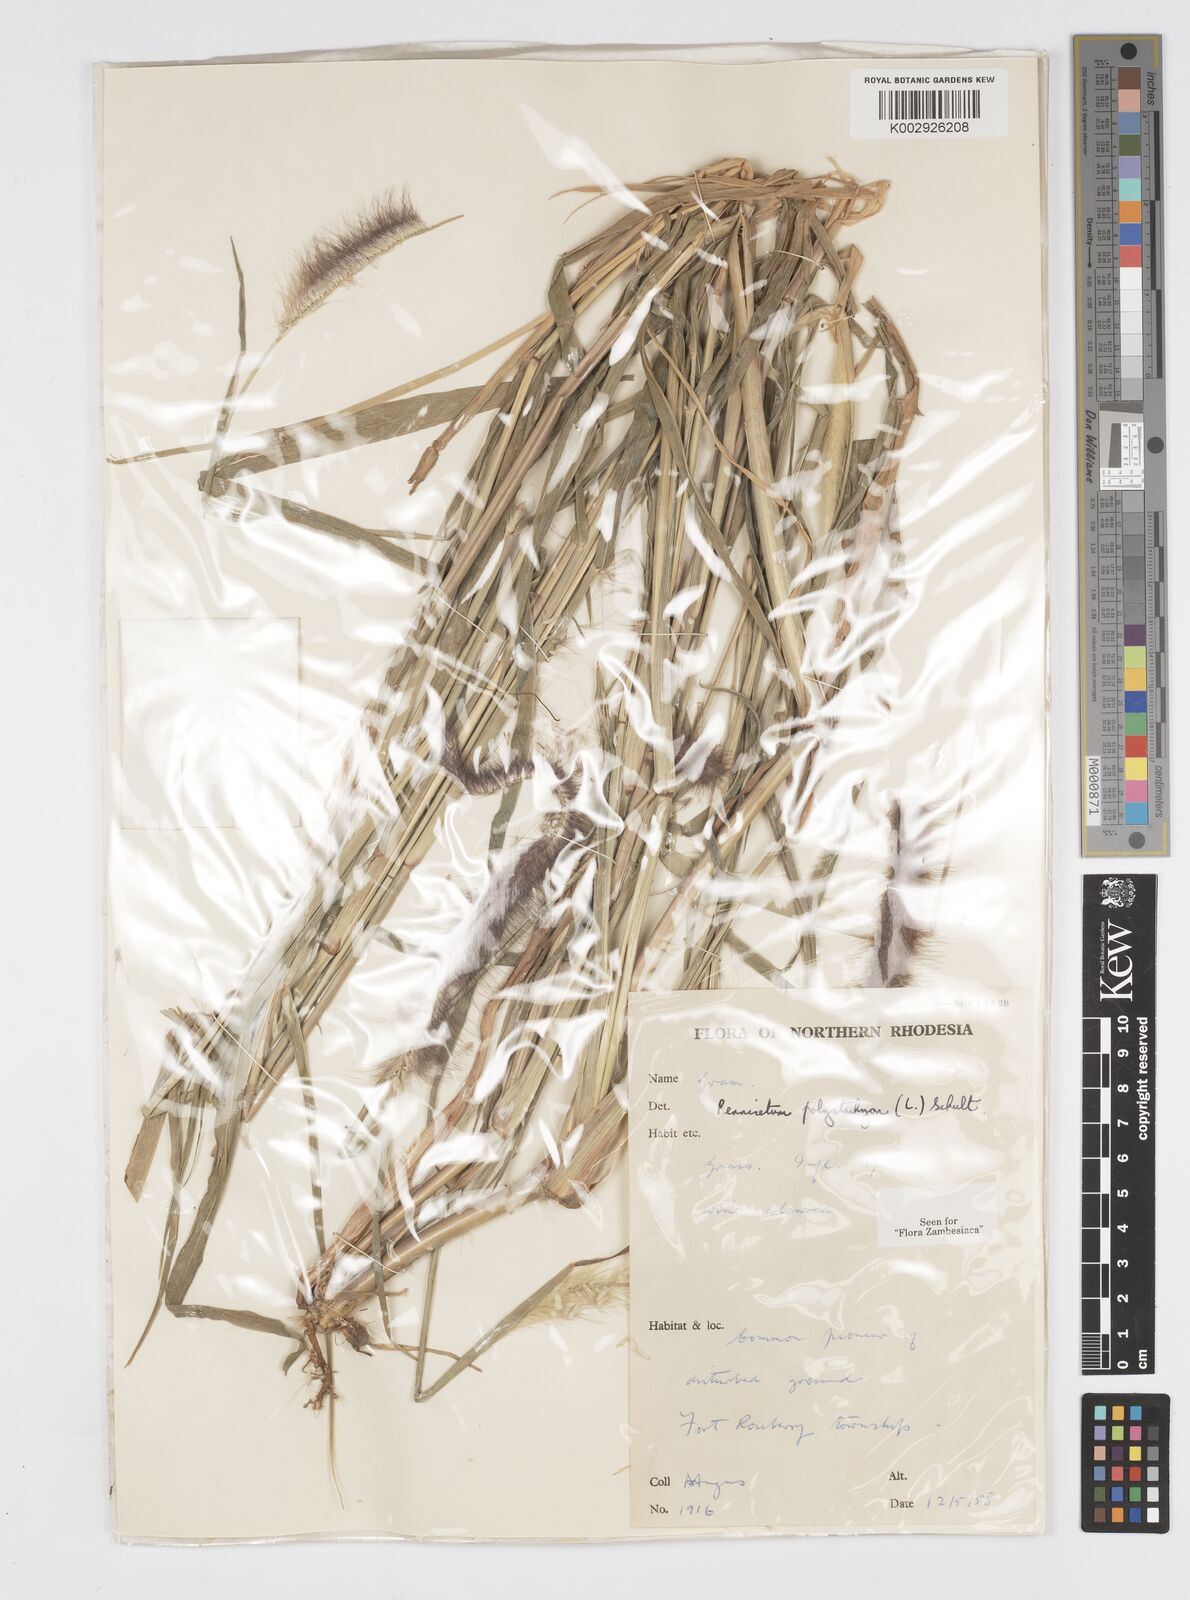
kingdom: Plantae
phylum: Tracheophyta
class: Liliopsida
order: Poales
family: Poaceae
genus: Setaria
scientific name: Setaria parviflora
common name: Knotroot bristle-grass
